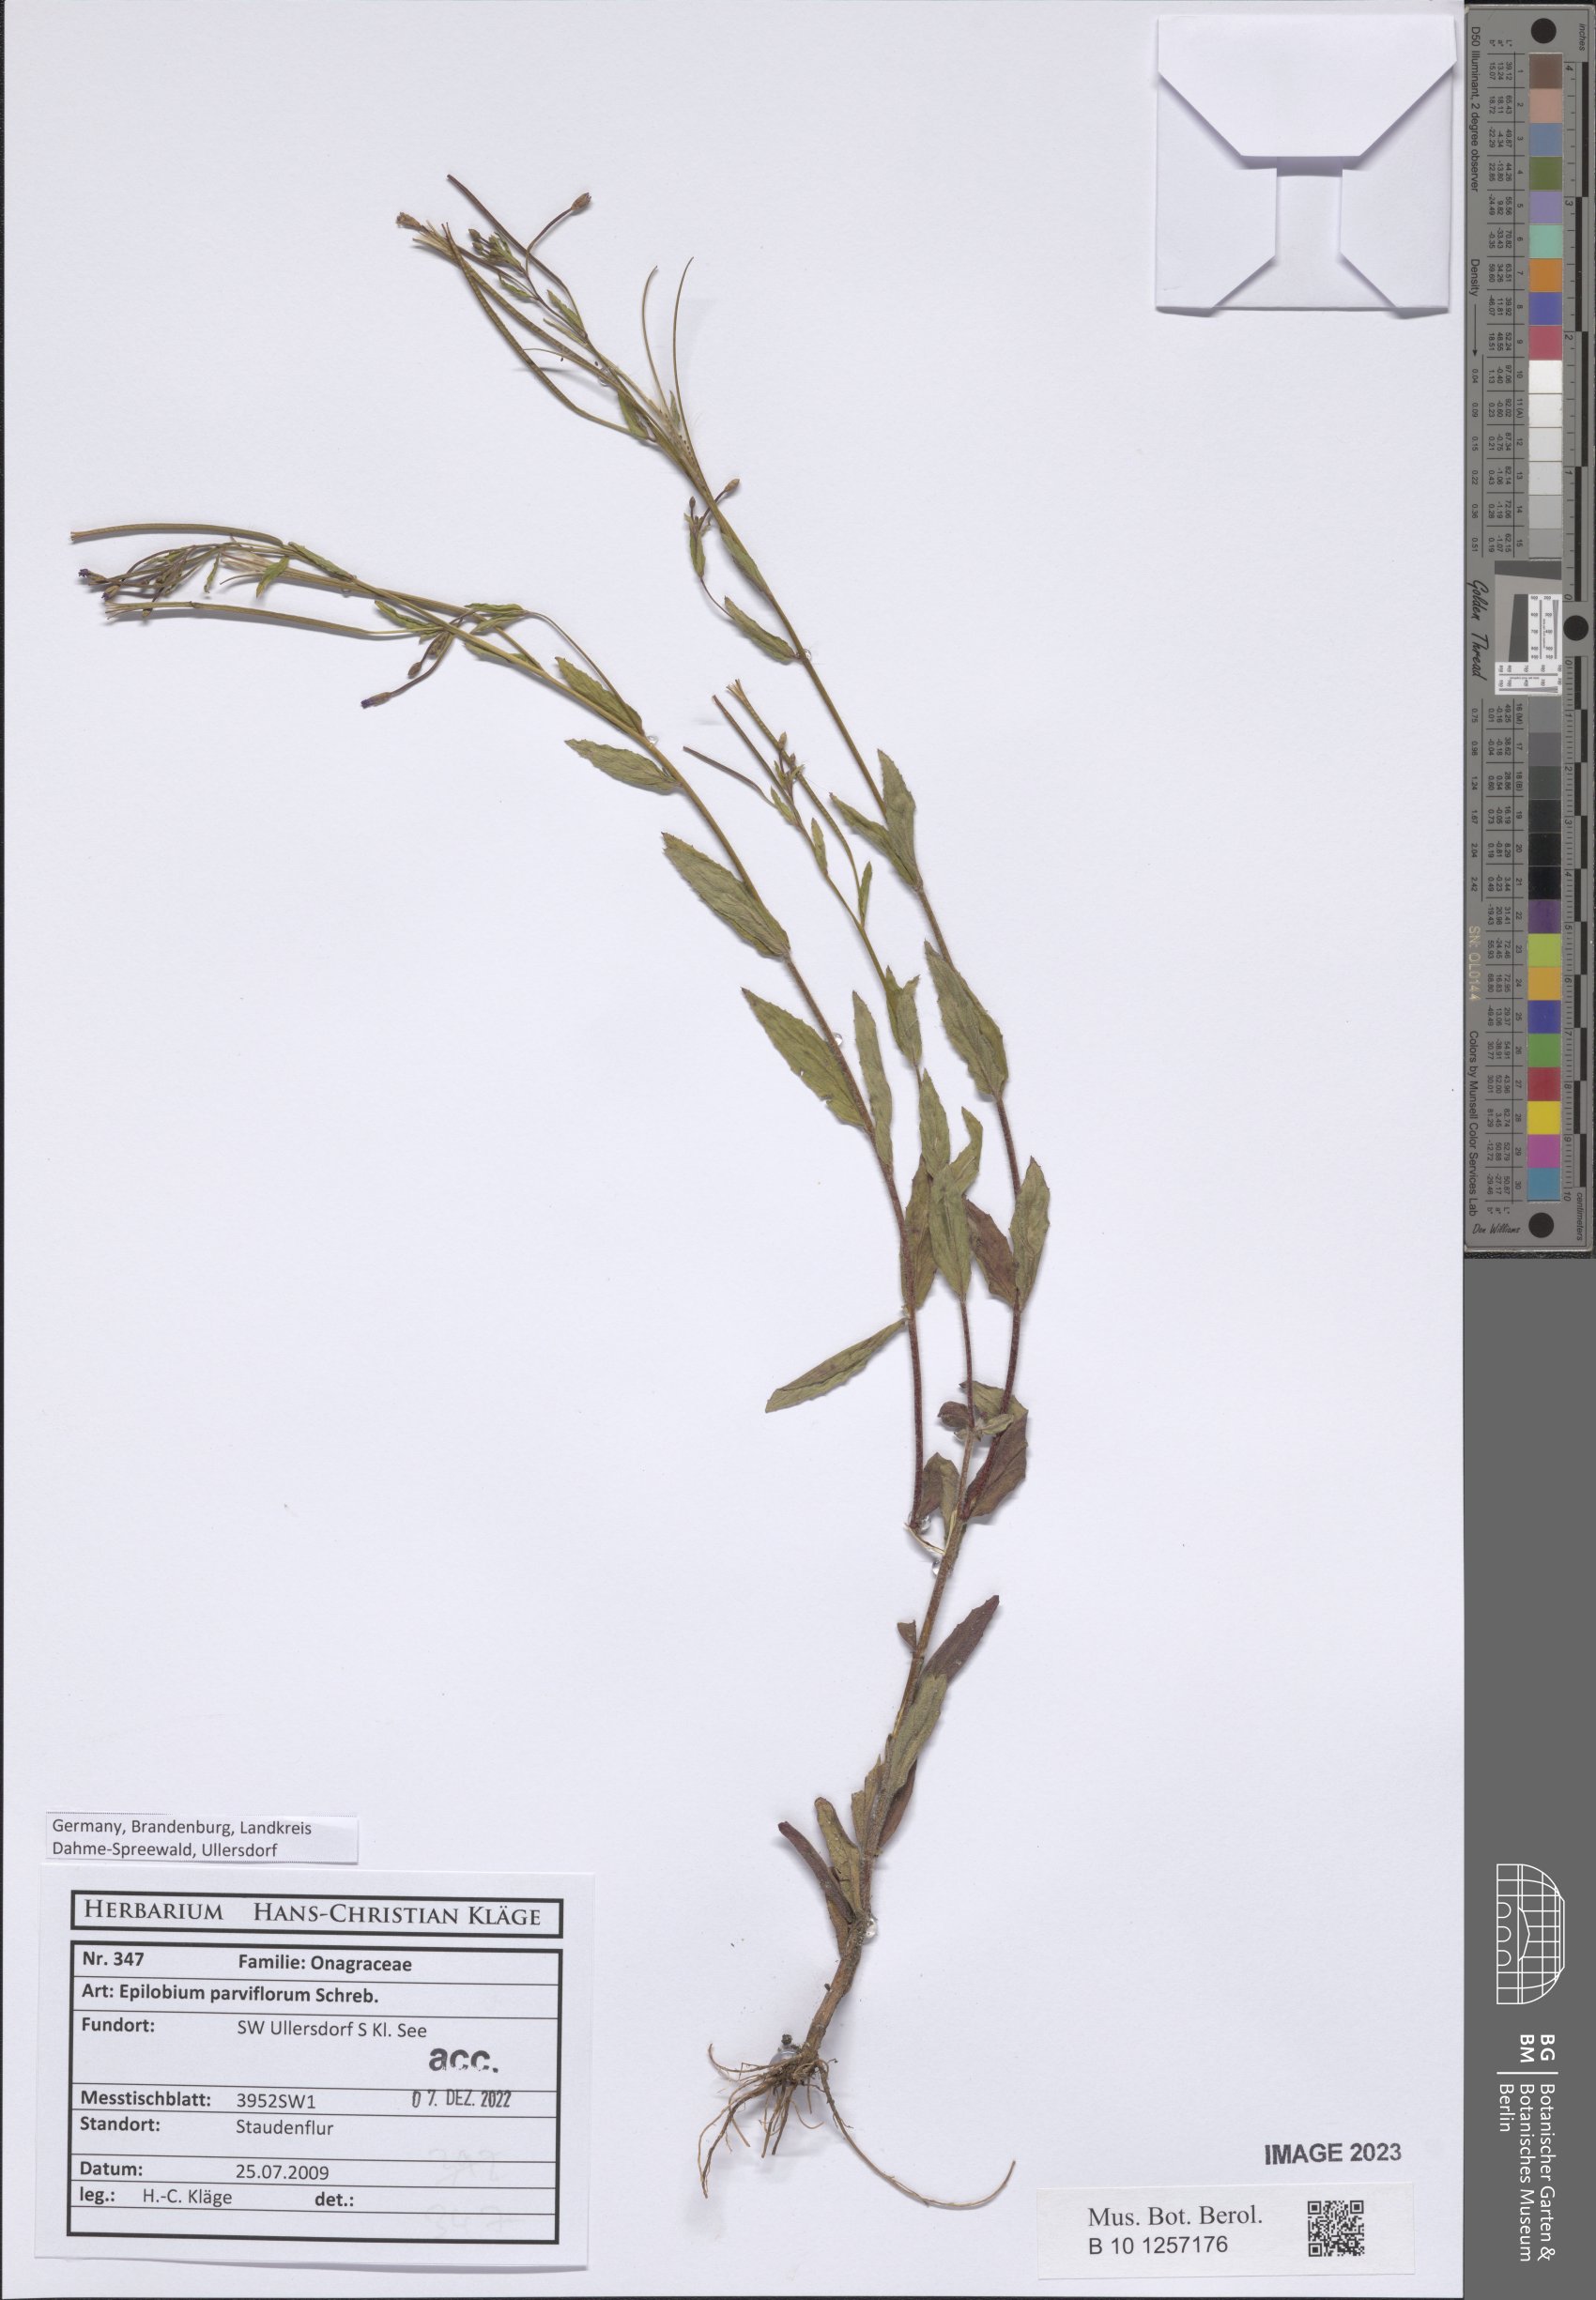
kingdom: Plantae
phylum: Tracheophyta
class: Magnoliopsida
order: Myrtales
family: Onagraceae
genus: Epilobium
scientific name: Epilobium parviflorum
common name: Hoary willowherb
